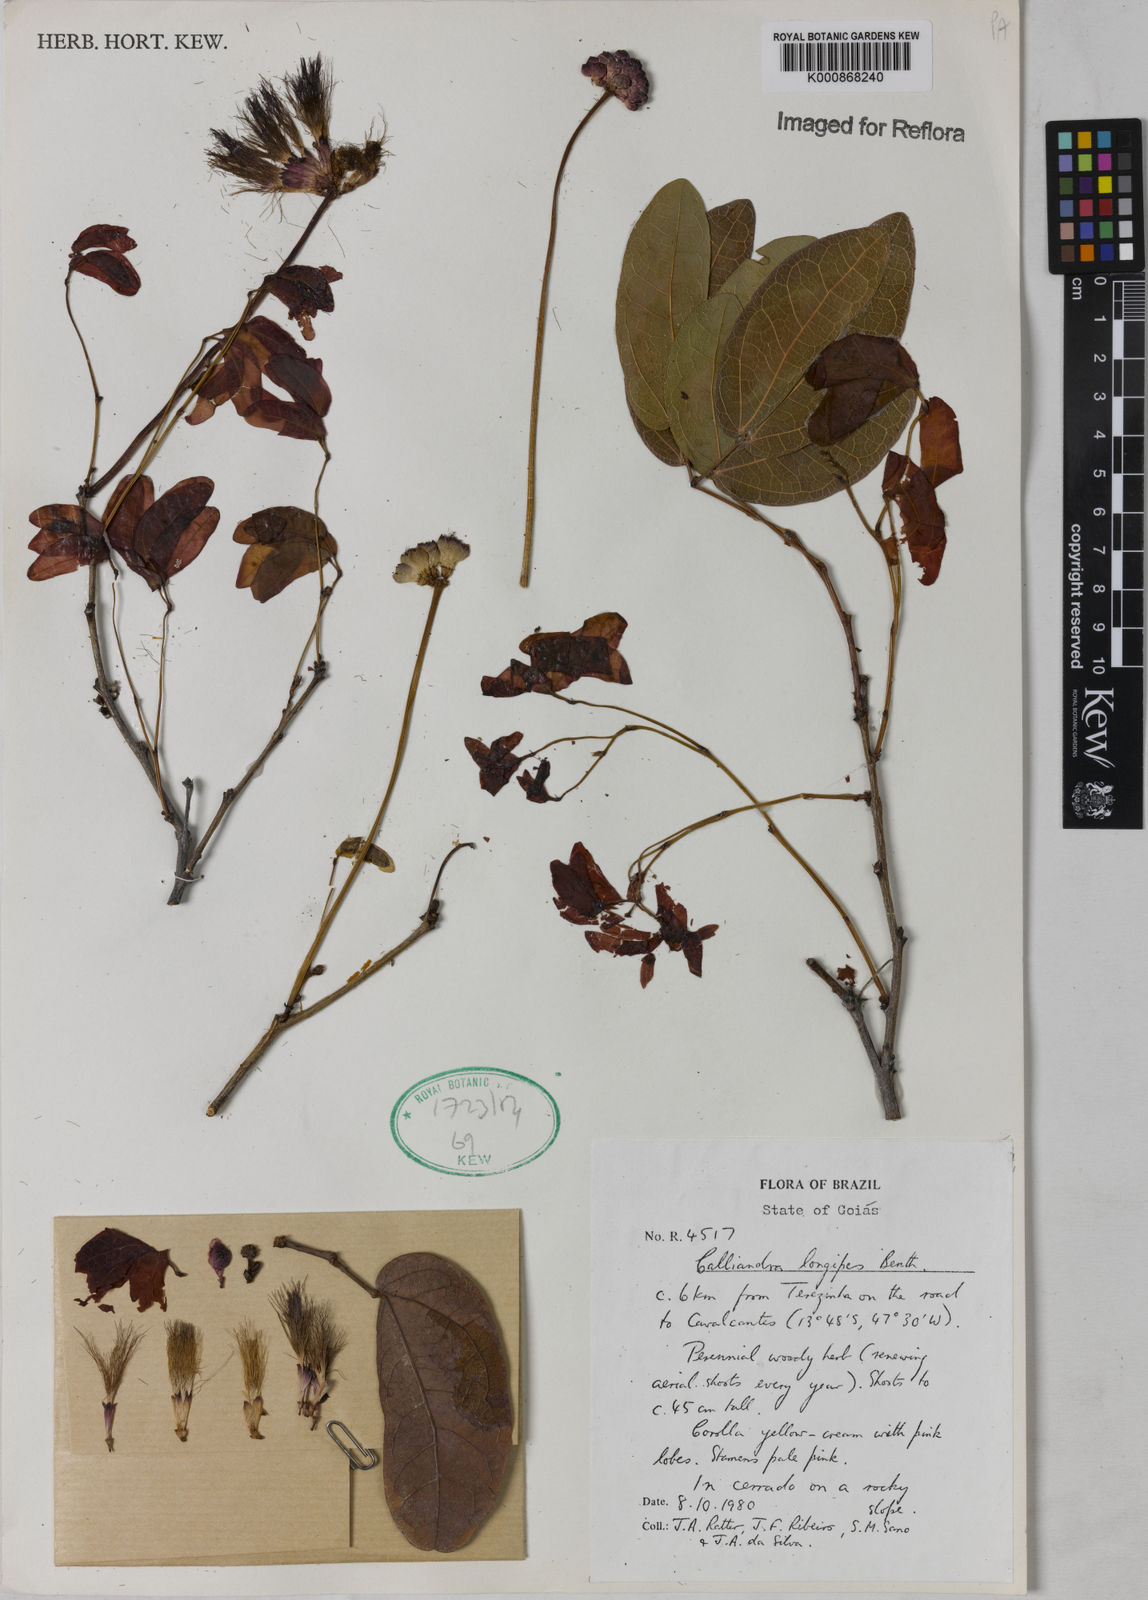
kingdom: Plantae
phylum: Tracheophyta
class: Magnoliopsida
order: Fabales
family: Fabaceae
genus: Calliandra
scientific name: Calliandra longipes
